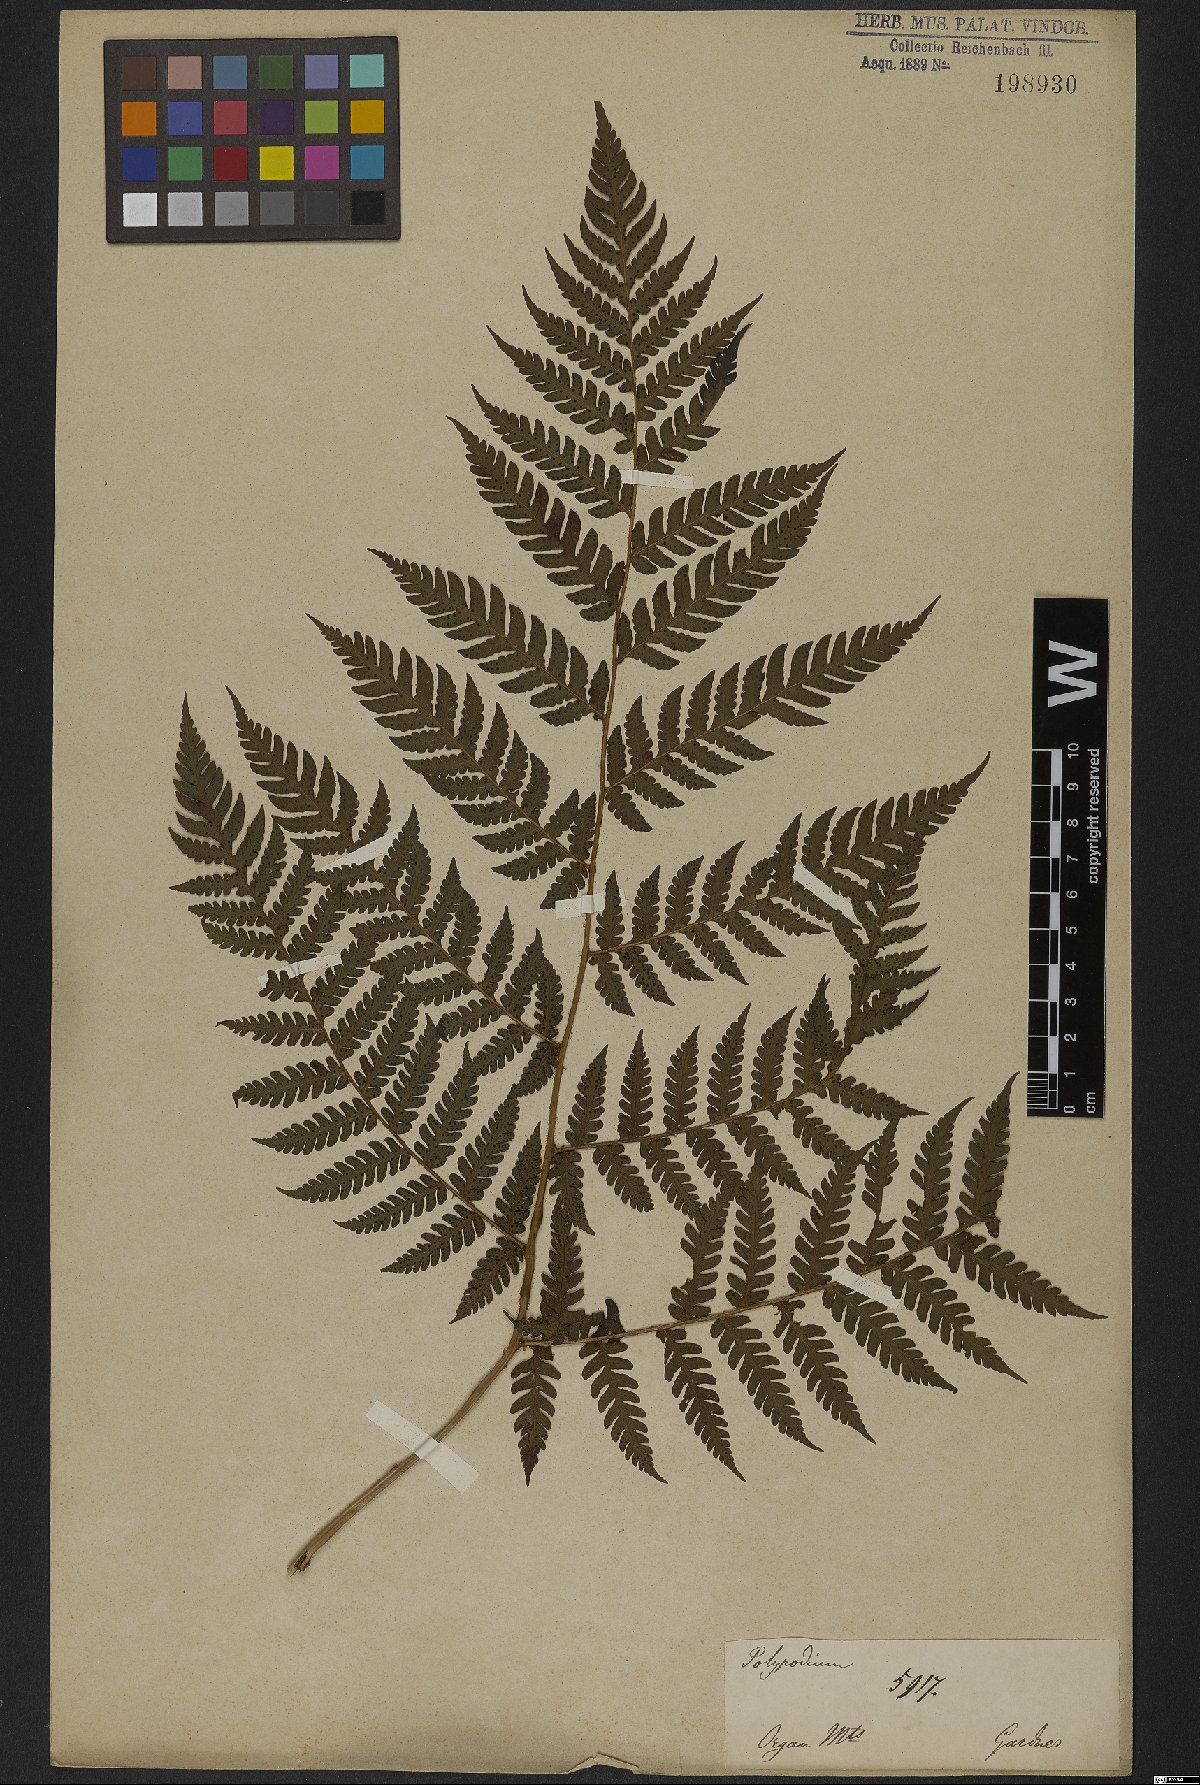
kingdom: Plantae
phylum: Tracheophyta
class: Polypodiopsida
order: Polypodiales
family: Dryopteridaceae
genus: Dryopteris
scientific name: Dryopteris
